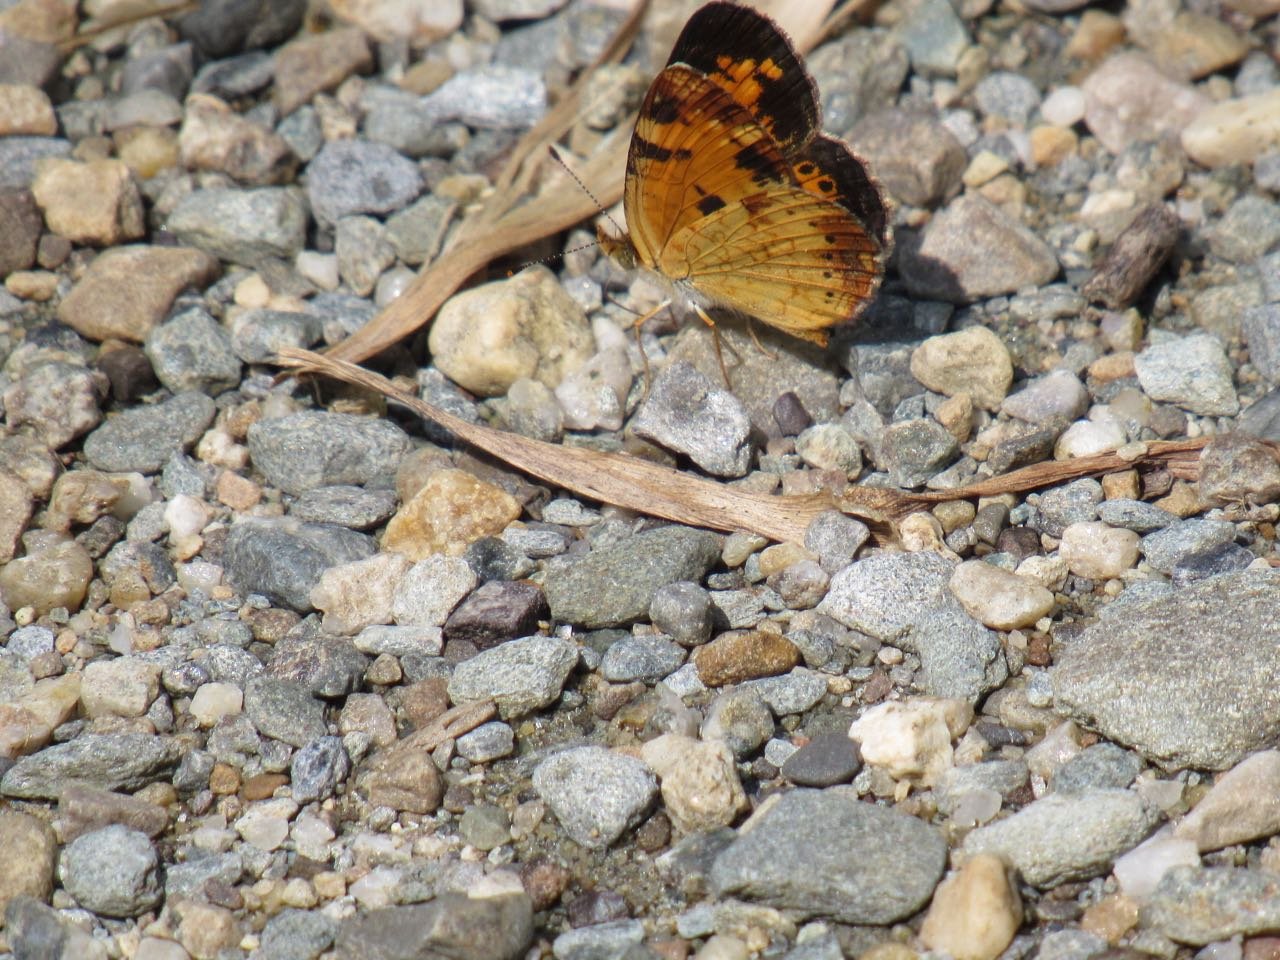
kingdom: Animalia
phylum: Arthropoda
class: Insecta
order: Lepidoptera
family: Nymphalidae
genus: Phyciodes
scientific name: Phyciodes tharos
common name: Pearl Crescent
